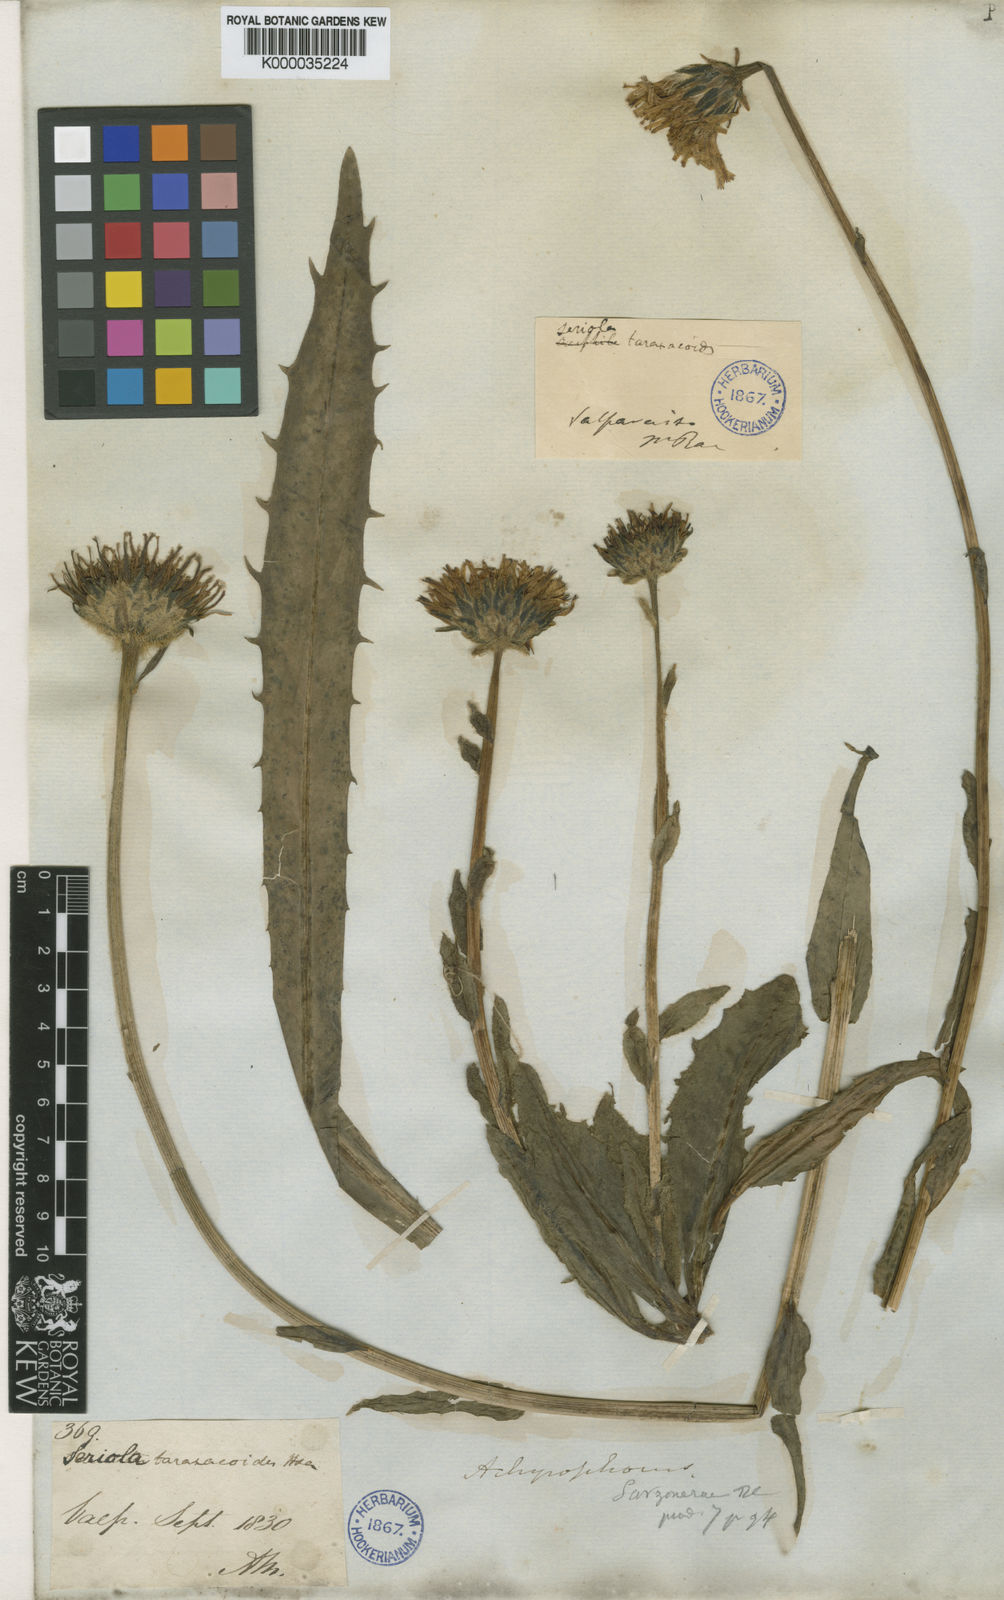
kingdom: Plantae
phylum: Tracheophyta
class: Magnoliopsida
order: Asterales
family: Asteraceae
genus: Hypochaeris
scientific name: Hypochaeris scorzonerae
